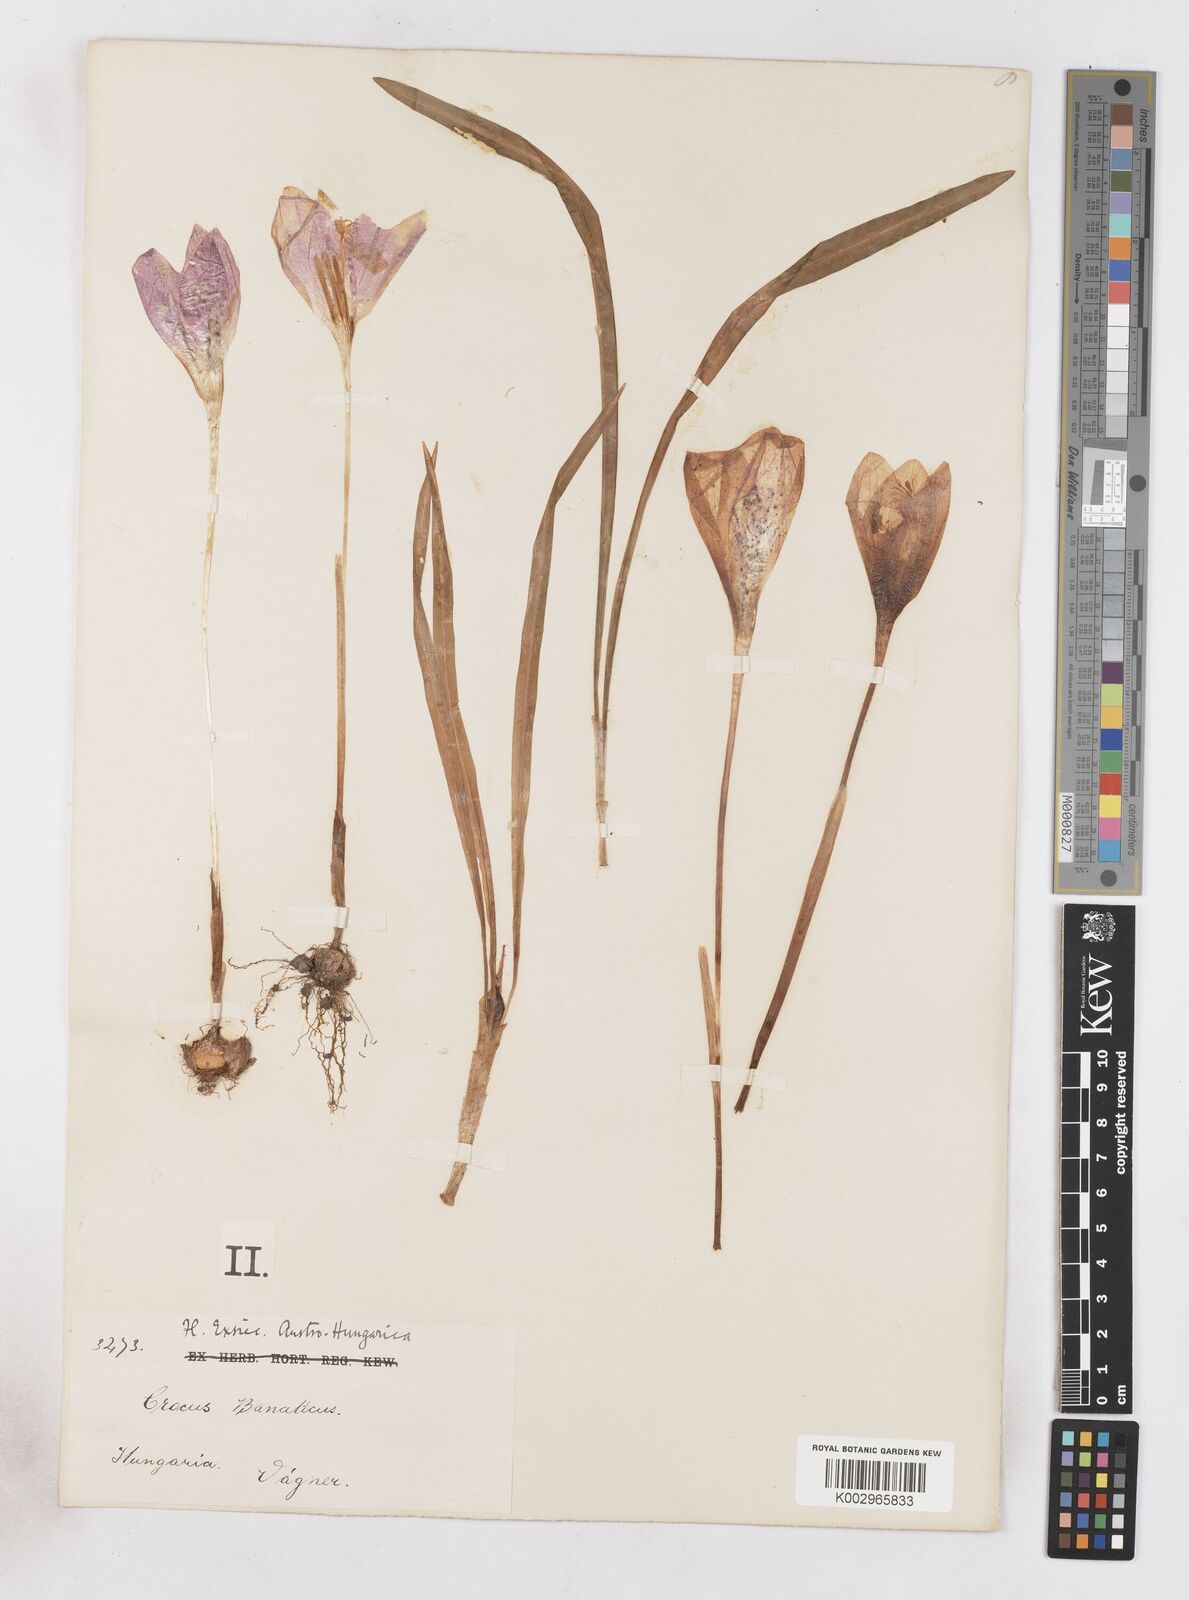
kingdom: Plantae
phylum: Tracheophyta
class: Liliopsida
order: Asparagales
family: Iridaceae
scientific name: Iridaceae
